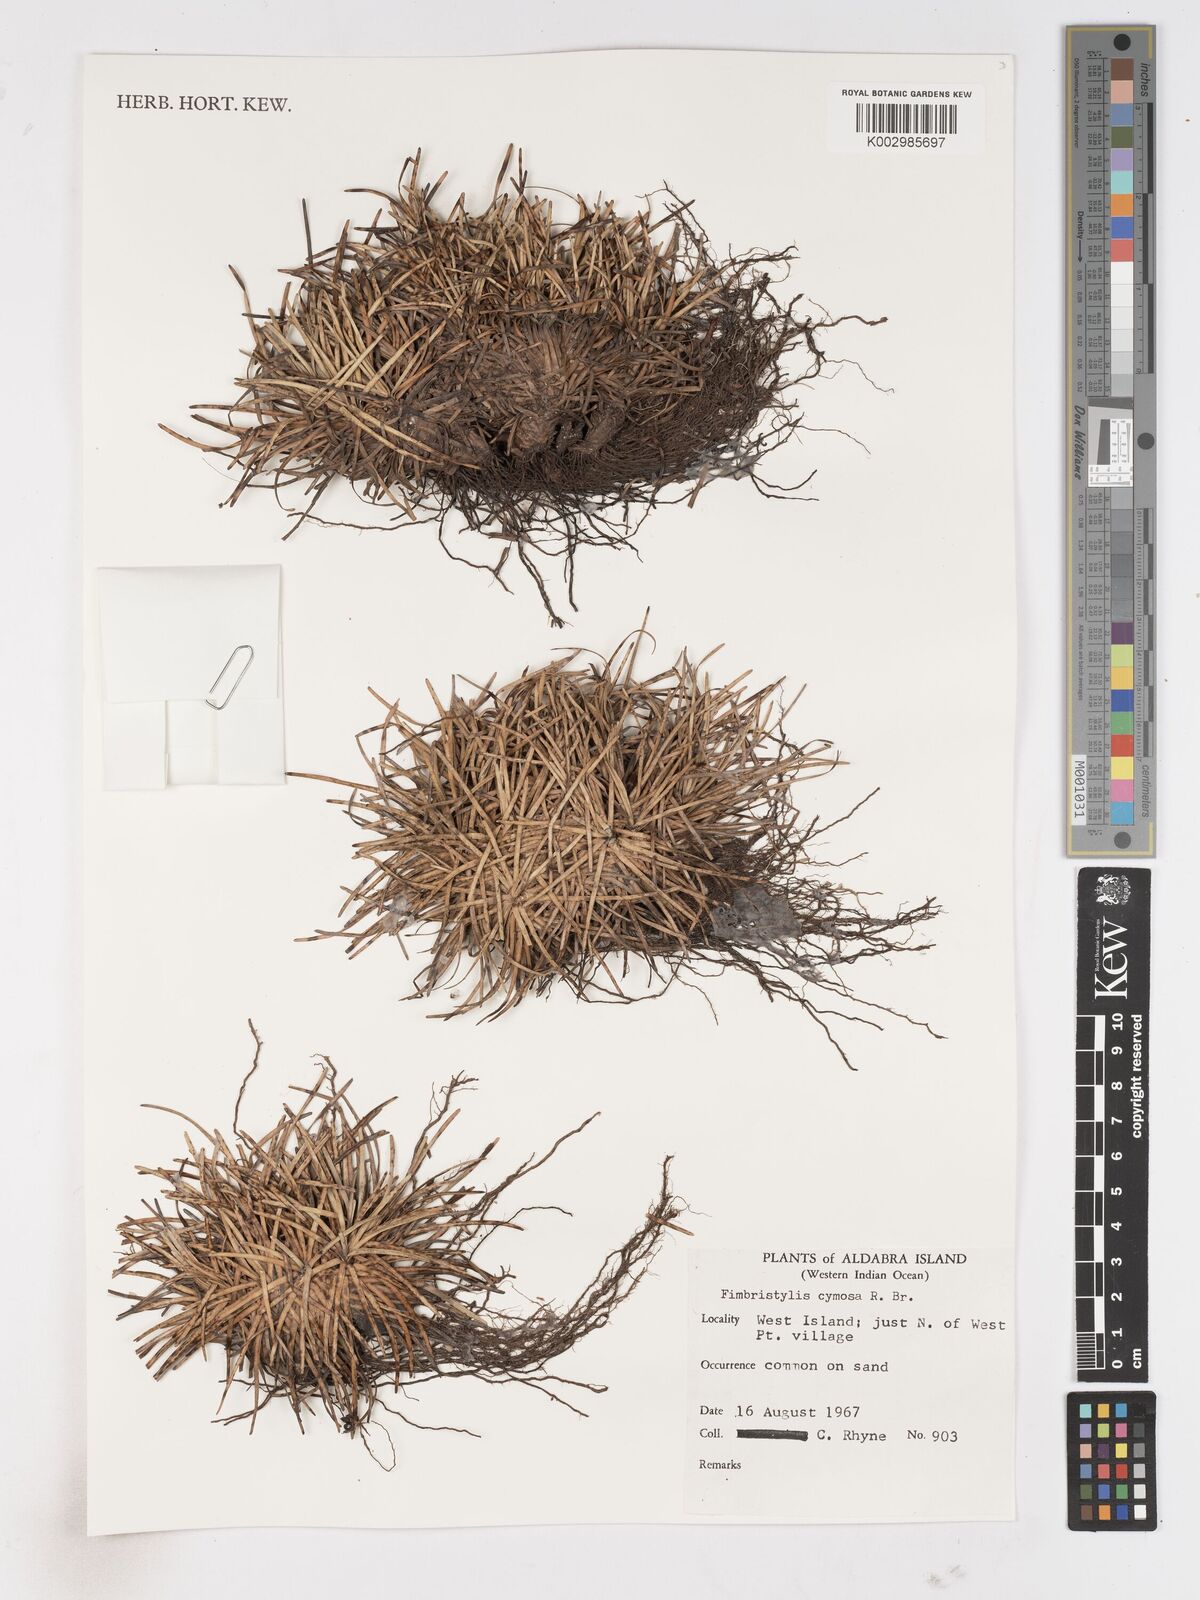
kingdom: Plantae
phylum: Tracheophyta
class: Liliopsida
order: Poales
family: Cyperaceae
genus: Fimbristylis
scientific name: Fimbristylis cymosa
